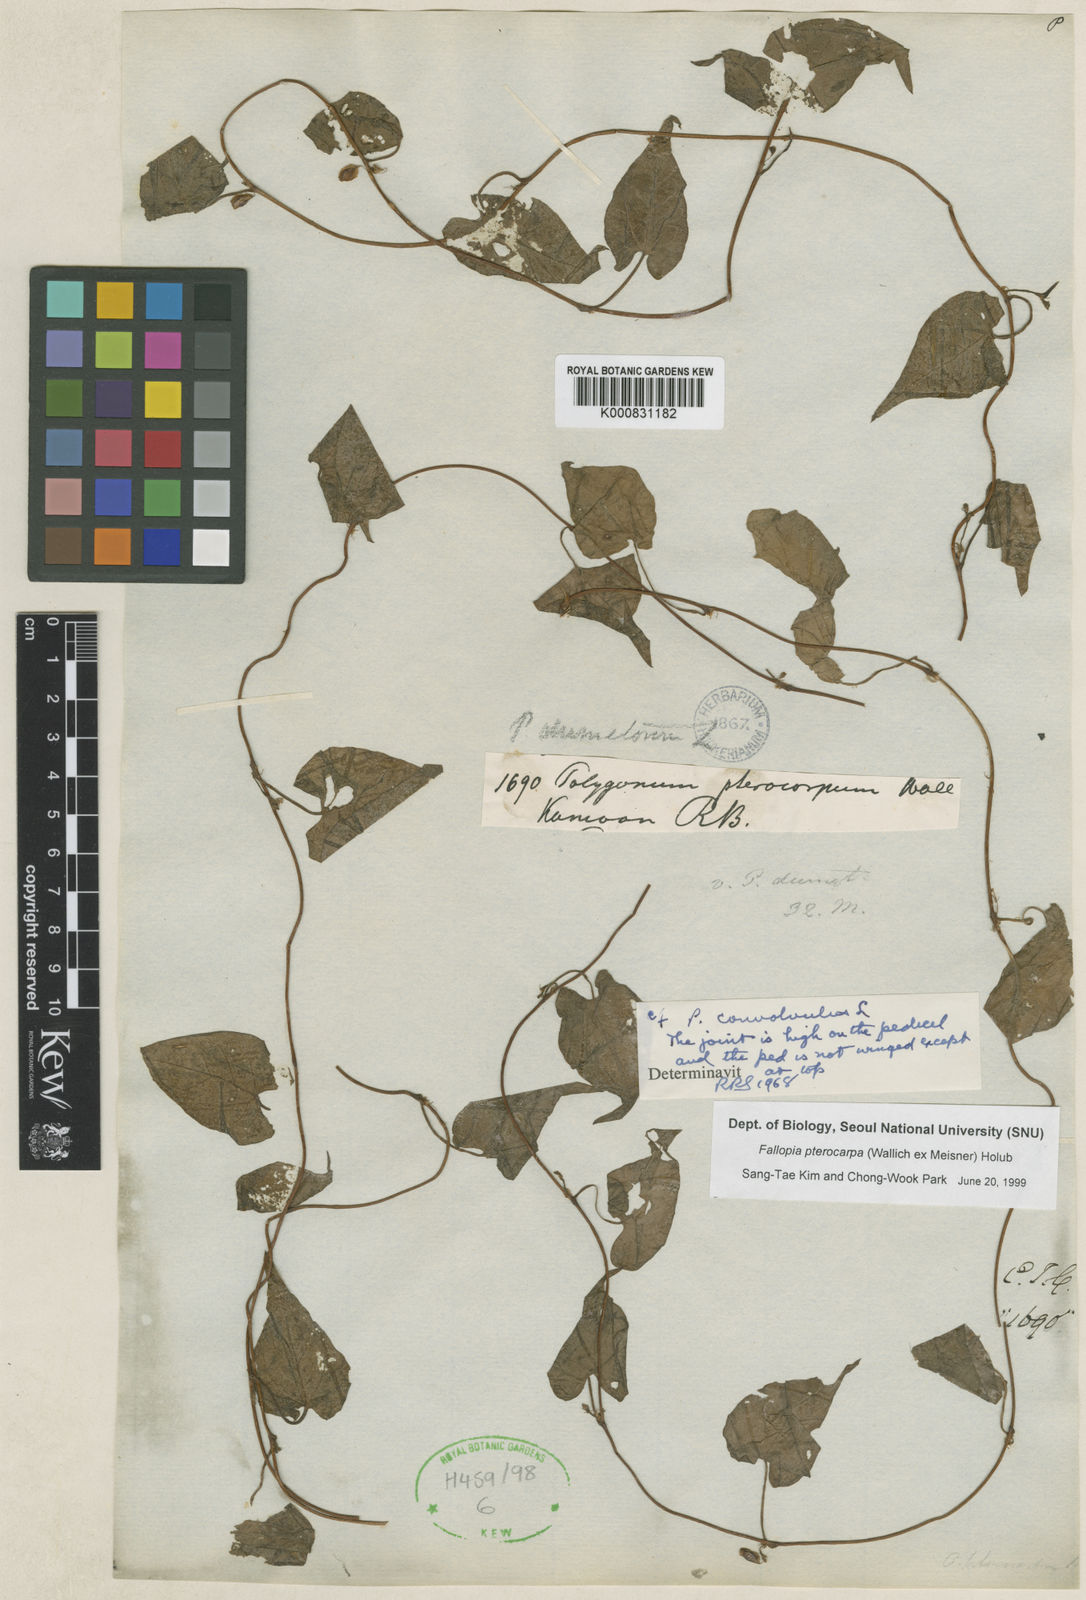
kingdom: Plantae
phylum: Tracheophyta
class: Magnoliopsida
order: Caryophyllales
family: Polygonaceae
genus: Fallopia
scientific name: Fallopia pterocarpa
